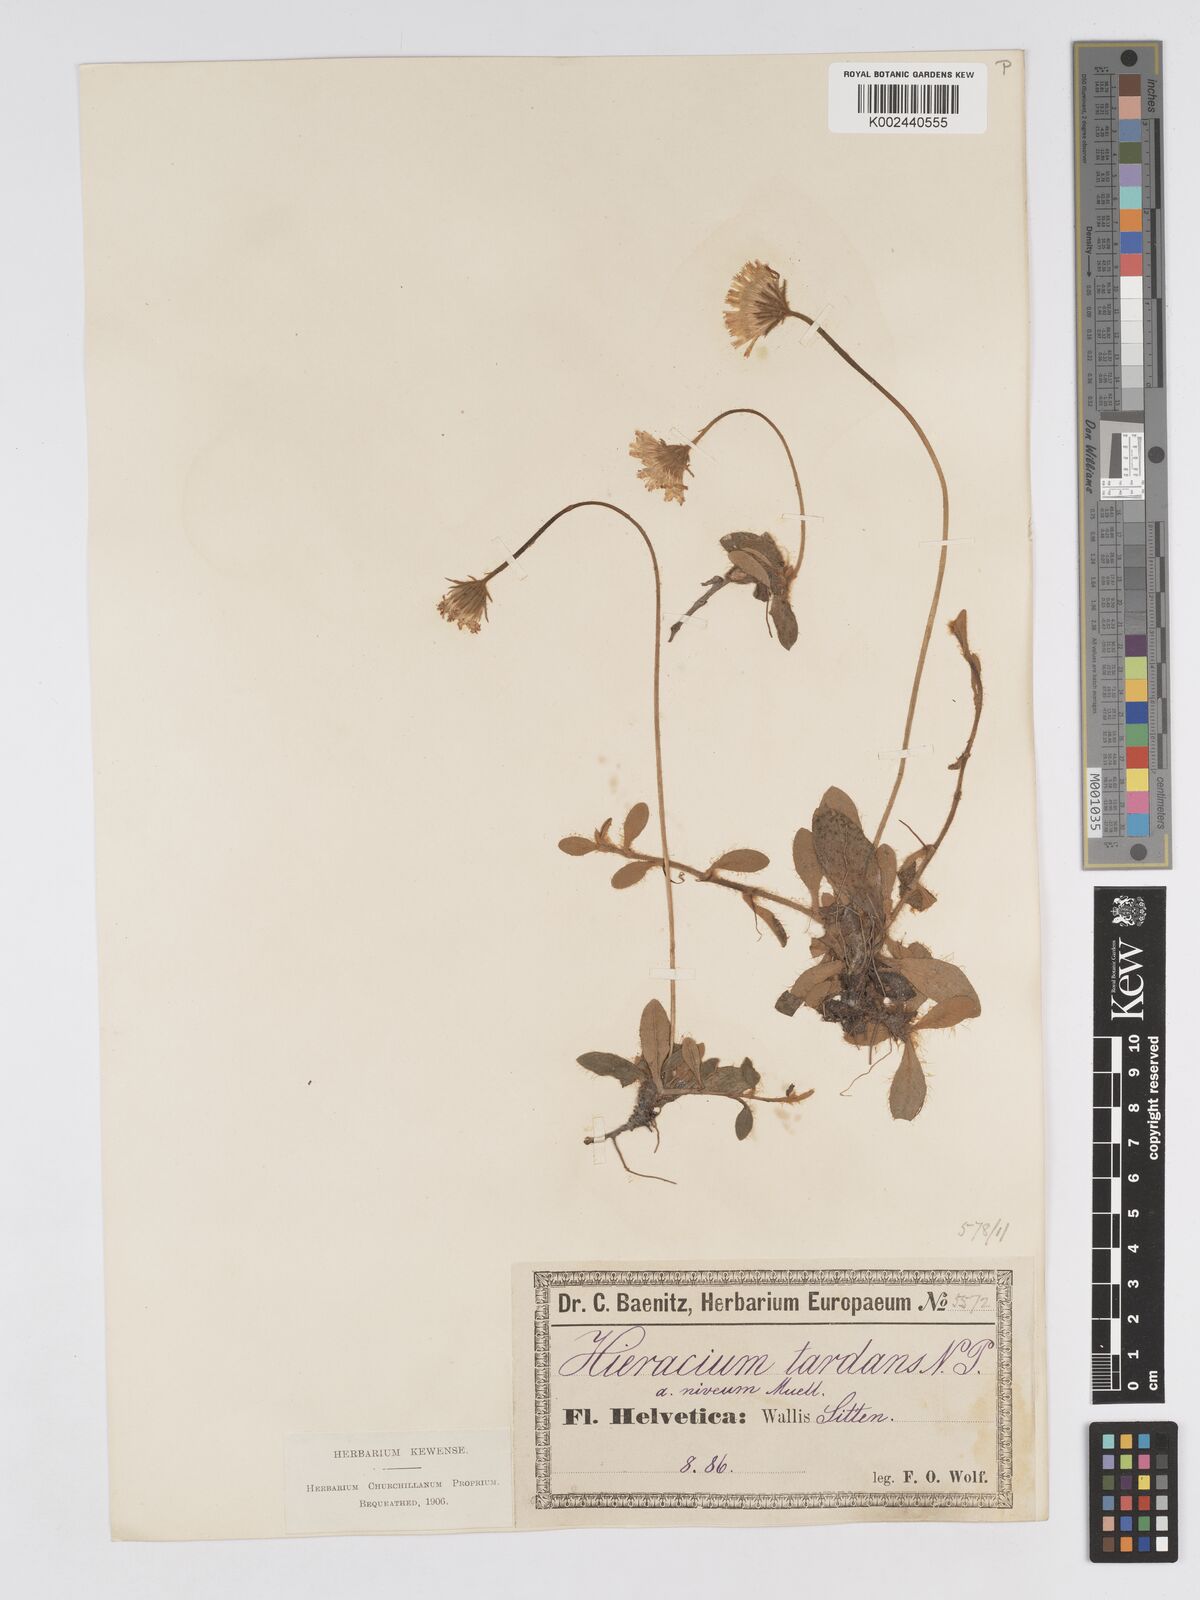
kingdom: Plantae
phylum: Tracheophyta
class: Magnoliopsida
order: Asterales
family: Asteraceae
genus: Pilosella
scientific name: Pilosella tardans
